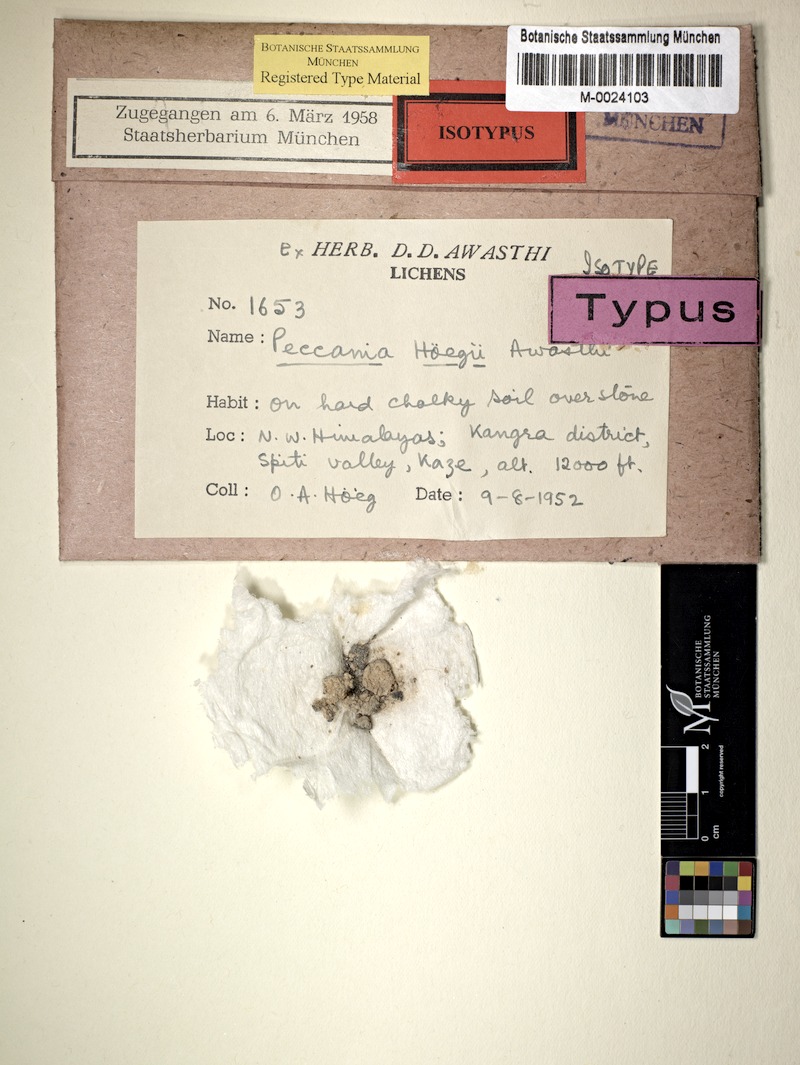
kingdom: Fungi
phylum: Ascomycota
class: Lichinomycetes
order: Lichinales
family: Lichinaceae
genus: Peccania
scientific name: Peccania hoegii
